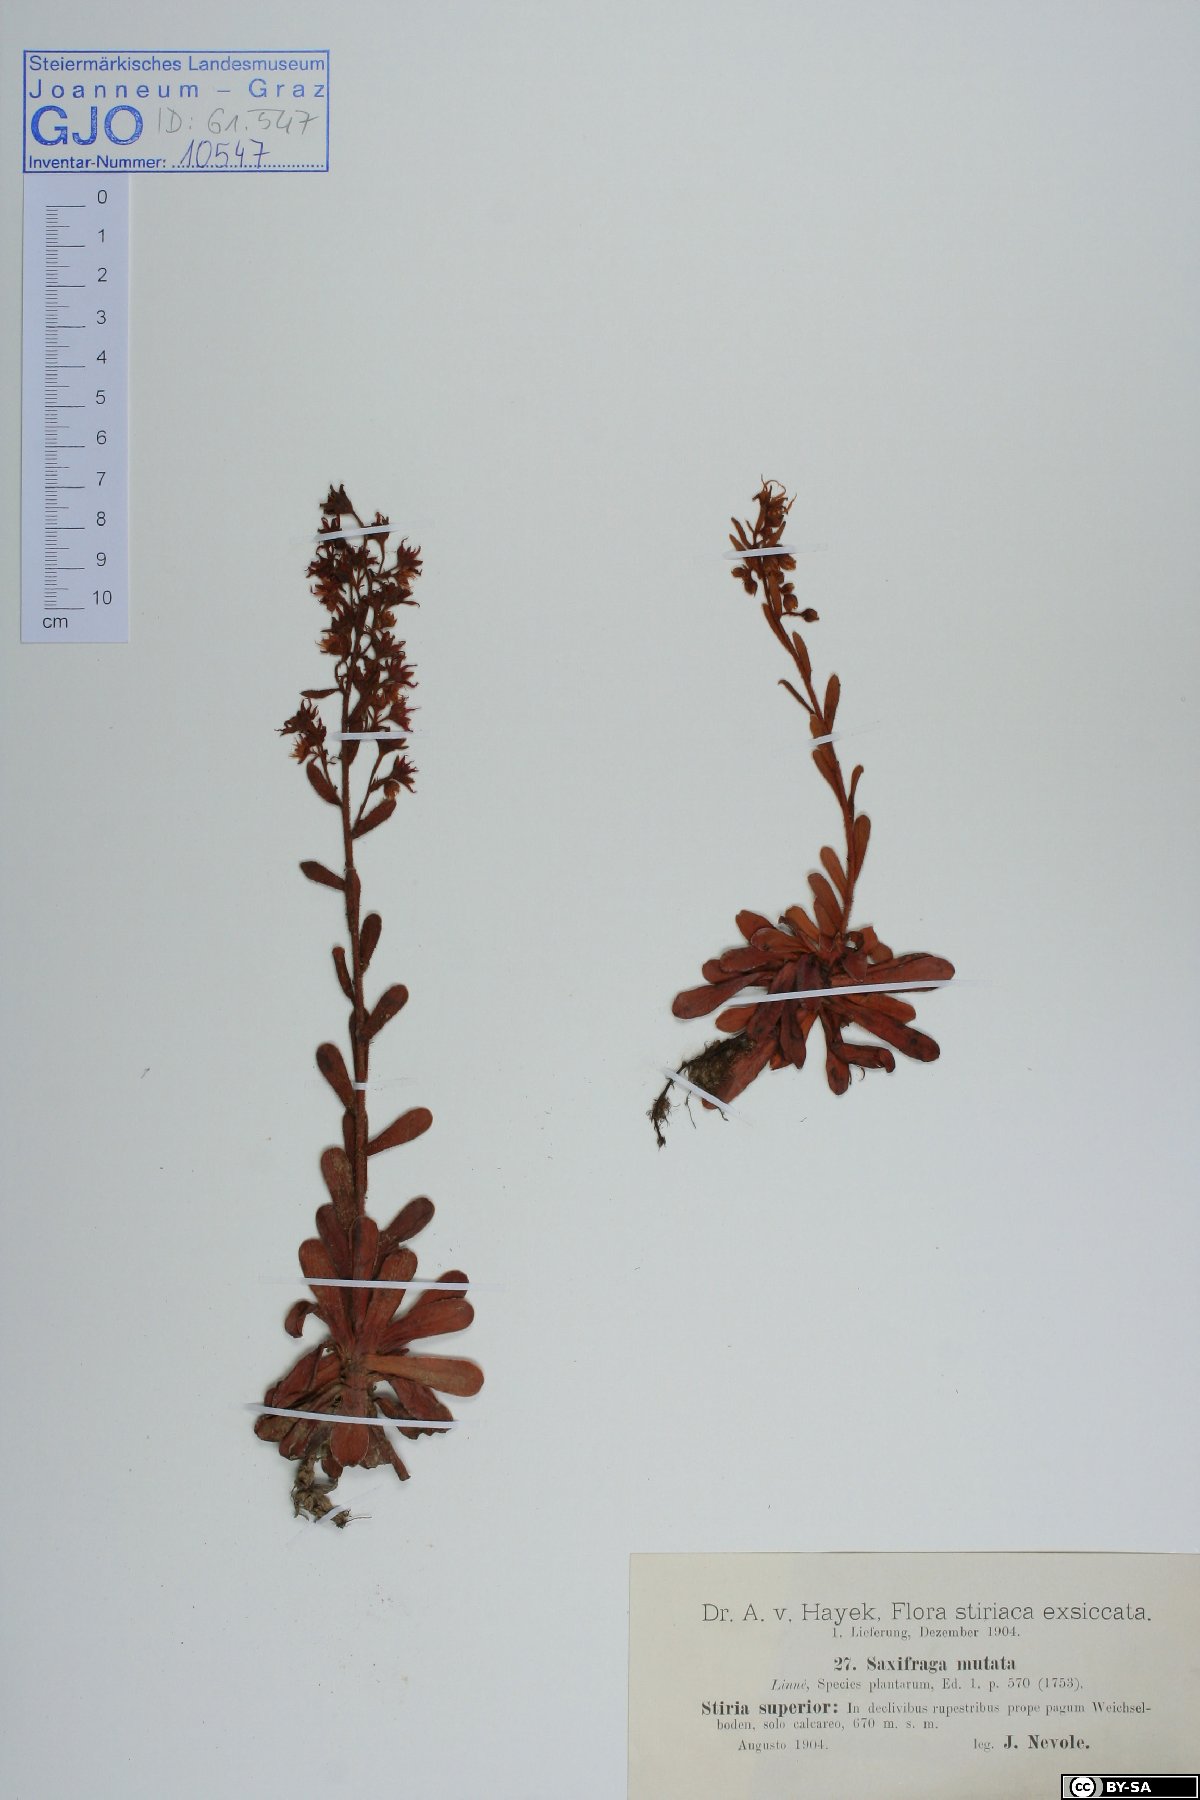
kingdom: Plantae
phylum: Tracheophyta
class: Magnoliopsida
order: Saxifragales
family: Saxifragaceae
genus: Saxifraga
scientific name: Saxifraga mutata
